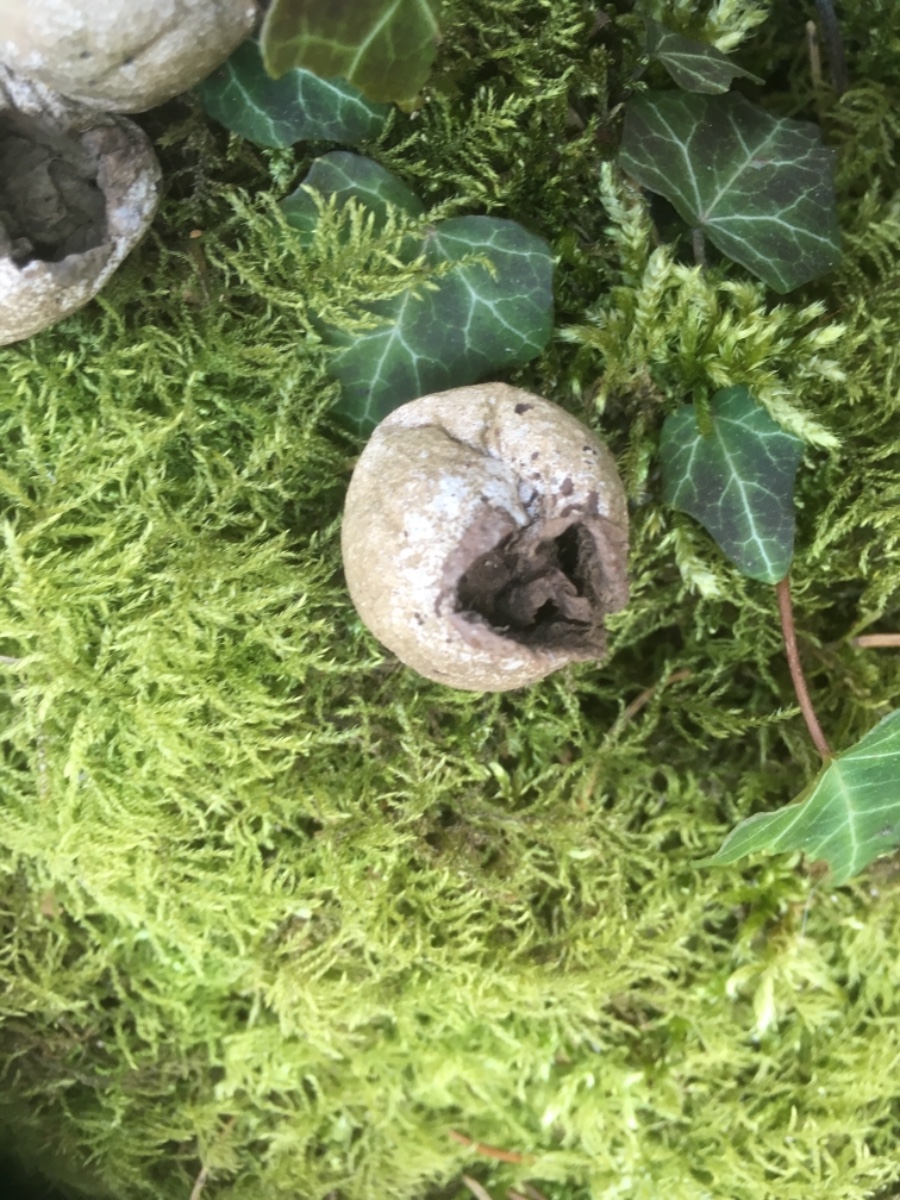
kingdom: Fungi
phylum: Basidiomycota
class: Agaricomycetes
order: Agaricales
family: Lycoperdaceae
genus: Apioperdon
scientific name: Apioperdon pyriforme
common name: pære-støvbold
